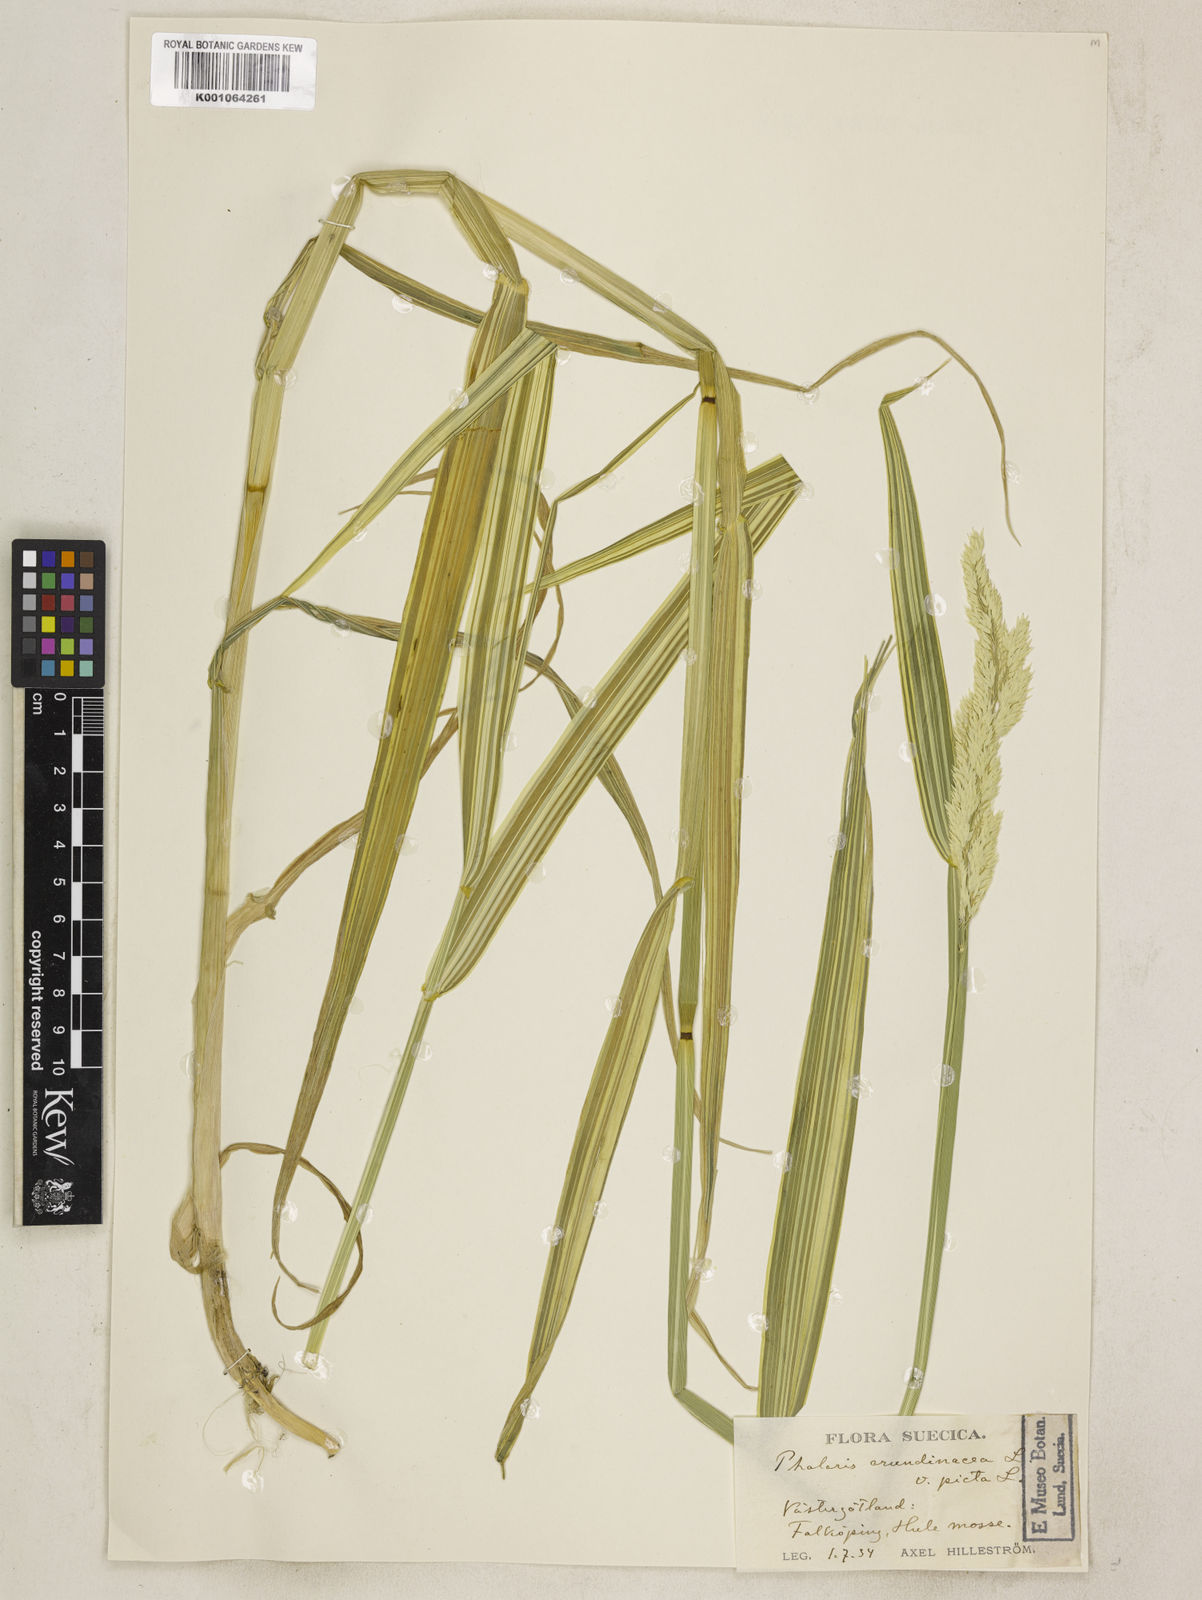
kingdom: Plantae
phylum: Tracheophyta
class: Liliopsida
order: Poales
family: Poaceae
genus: Phalaris
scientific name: Phalaris arundinacea
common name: Reed canary-grass
